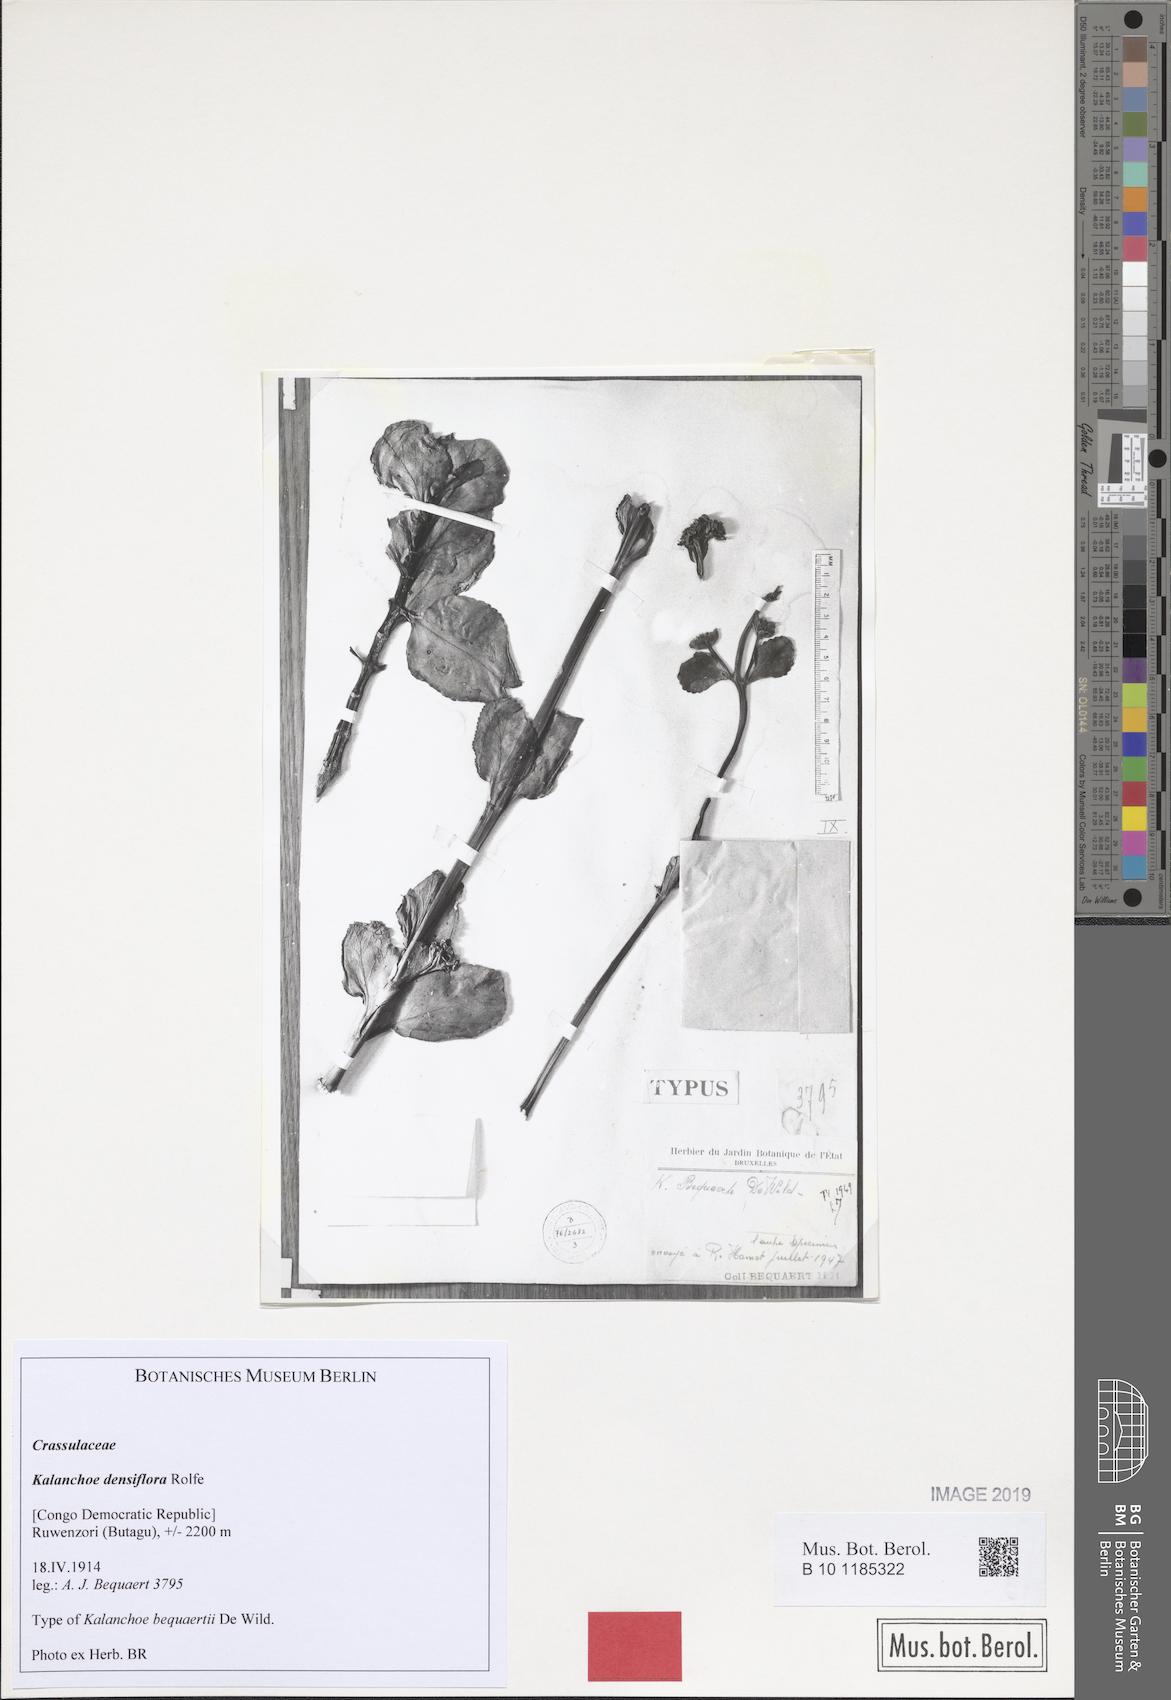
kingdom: Plantae
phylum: Tracheophyta
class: Magnoliopsida
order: Saxifragales
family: Crassulaceae
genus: Kalanchoe
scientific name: Kalanchoe densiflora
